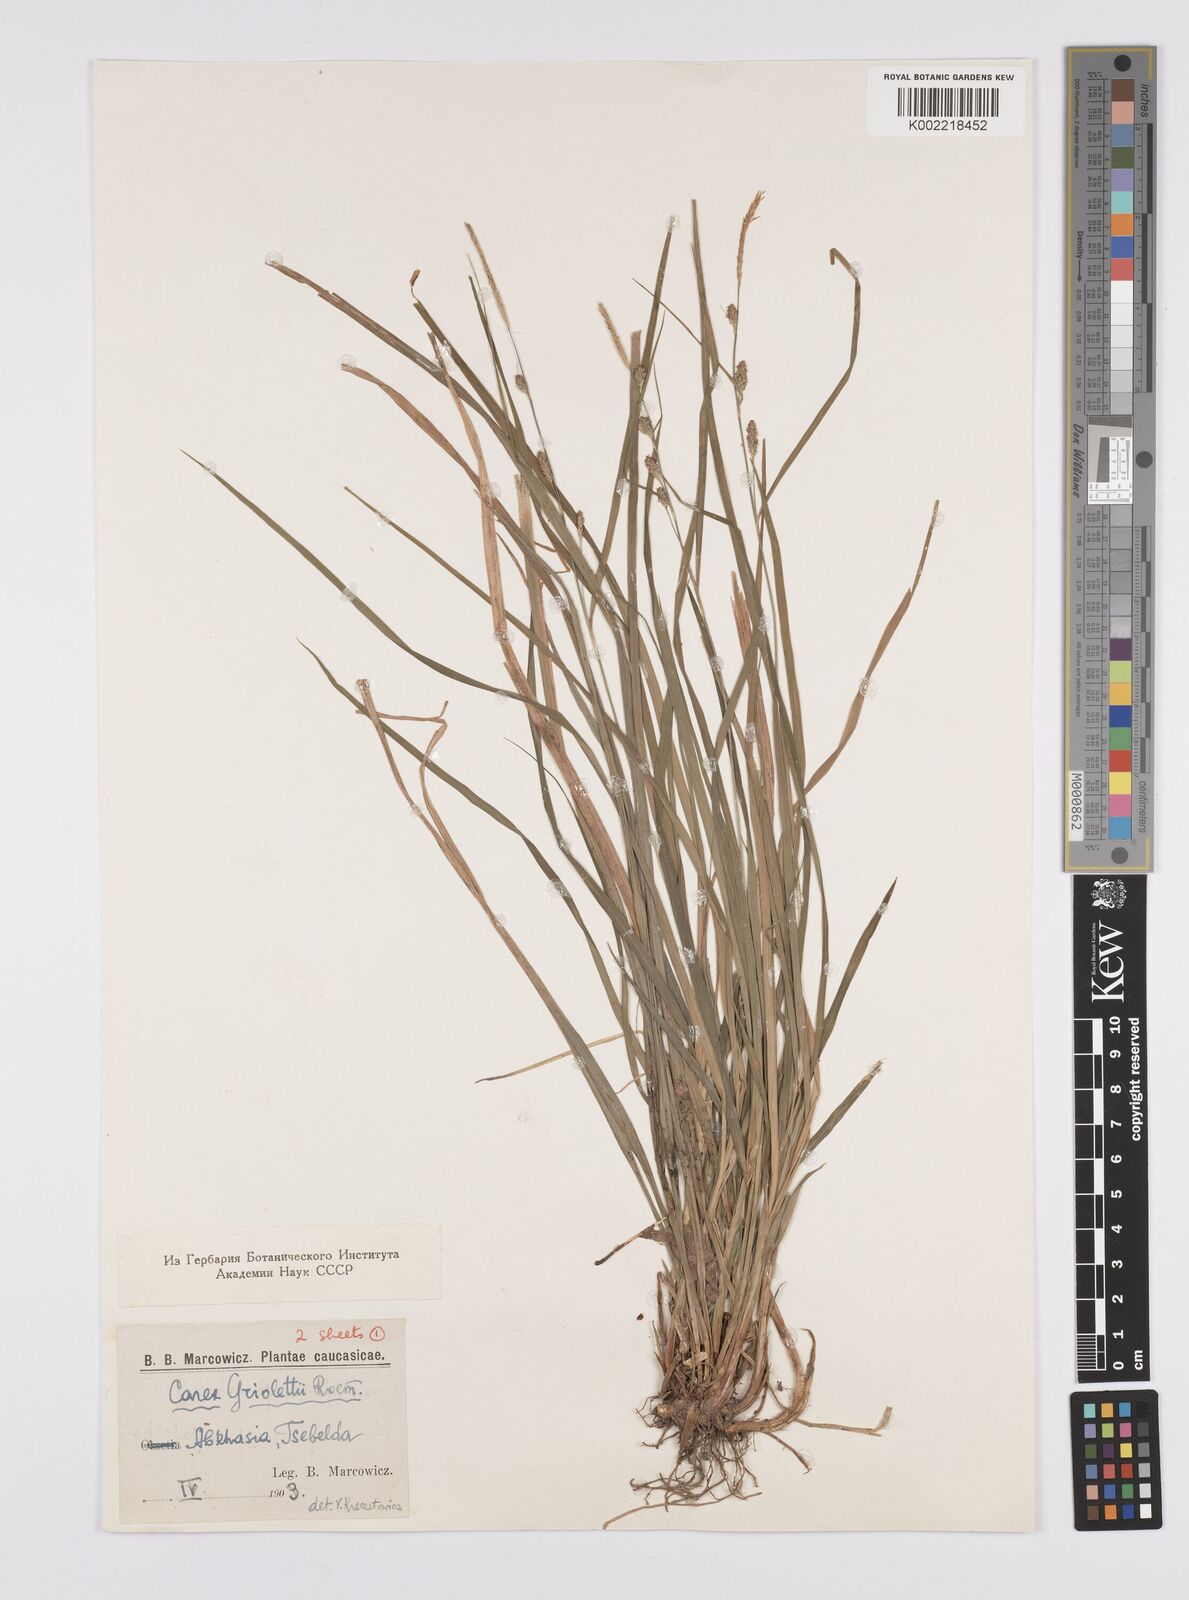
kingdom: Plantae
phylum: Tracheophyta
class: Liliopsida
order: Poales
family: Cyperaceae
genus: Carex
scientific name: Carex grioletii
